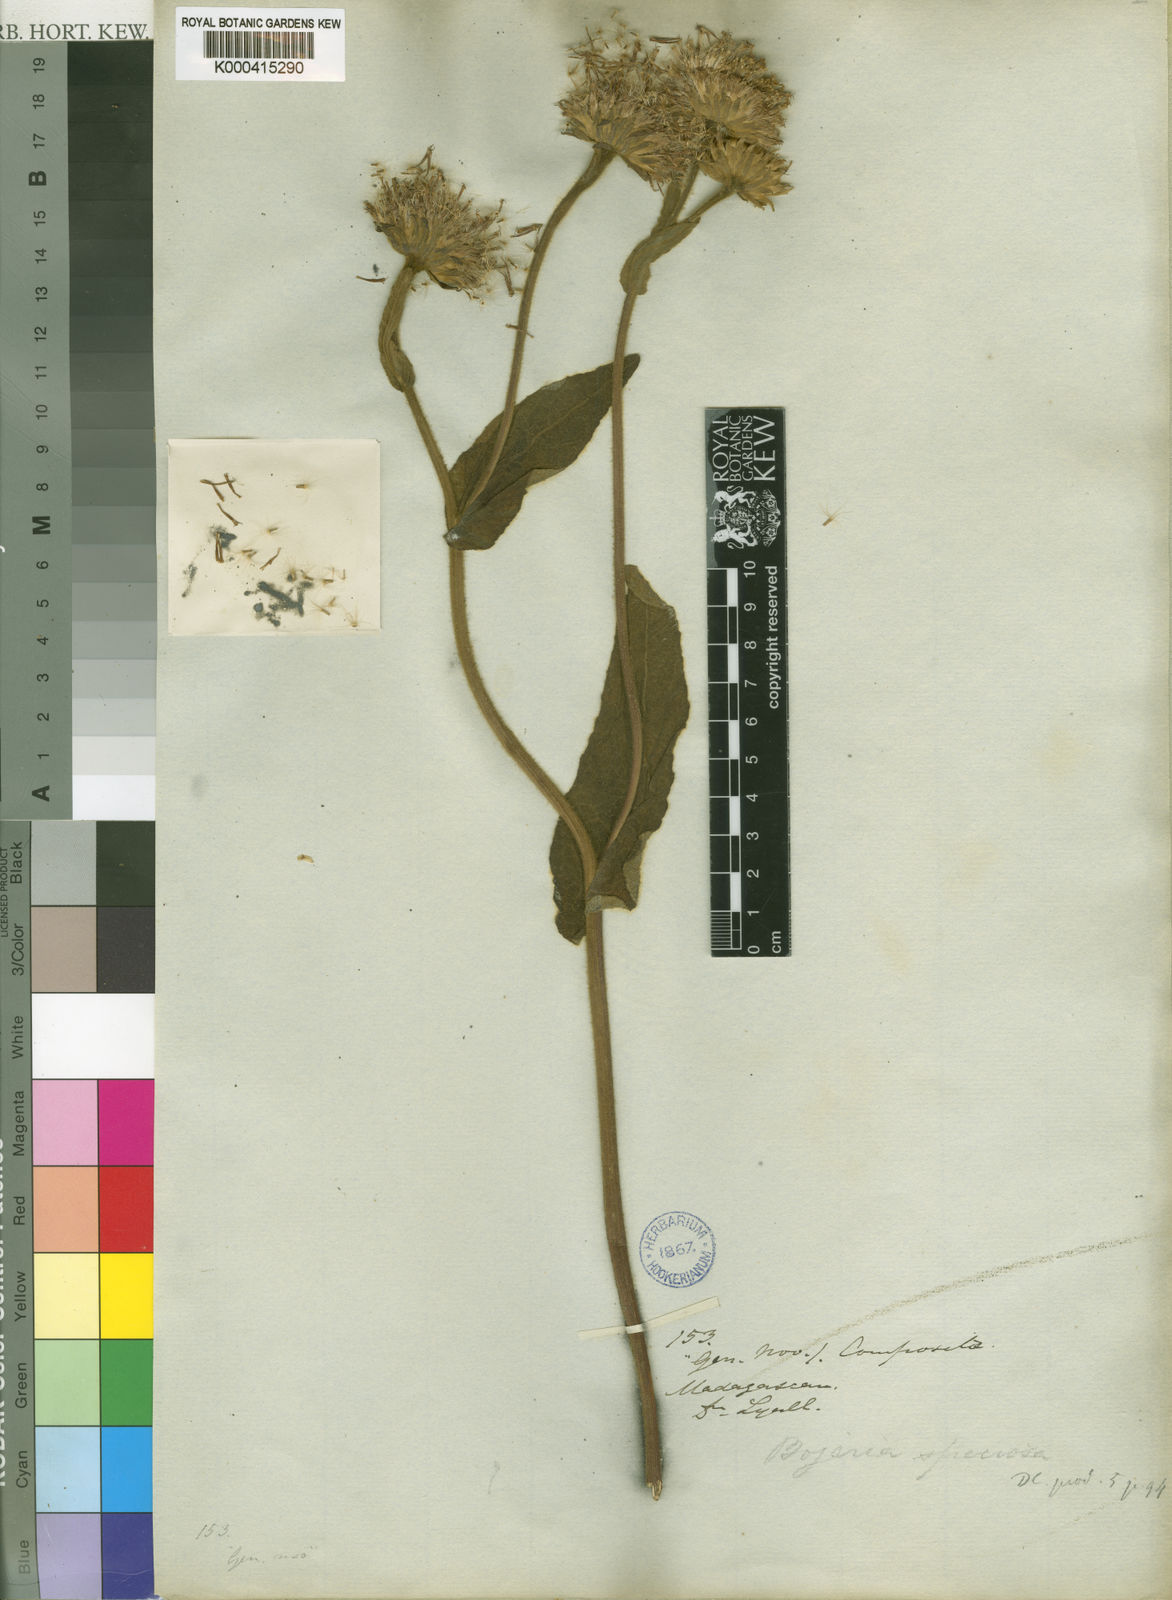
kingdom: Plantae
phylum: Tracheophyta
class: Magnoliopsida
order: Asterales
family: Asteraceae
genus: Inula
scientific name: Inula speciosa
